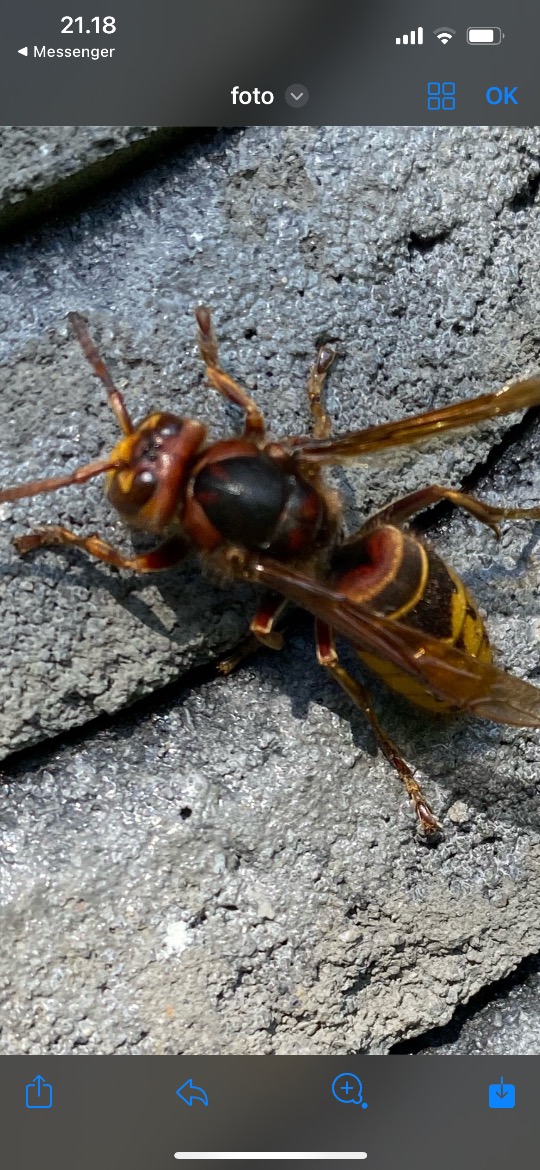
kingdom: Animalia
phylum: Arthropoda
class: Insecta
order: Hymenoptera
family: Vespidae
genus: Vespa
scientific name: Vespa crabro
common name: Stor gedehams
